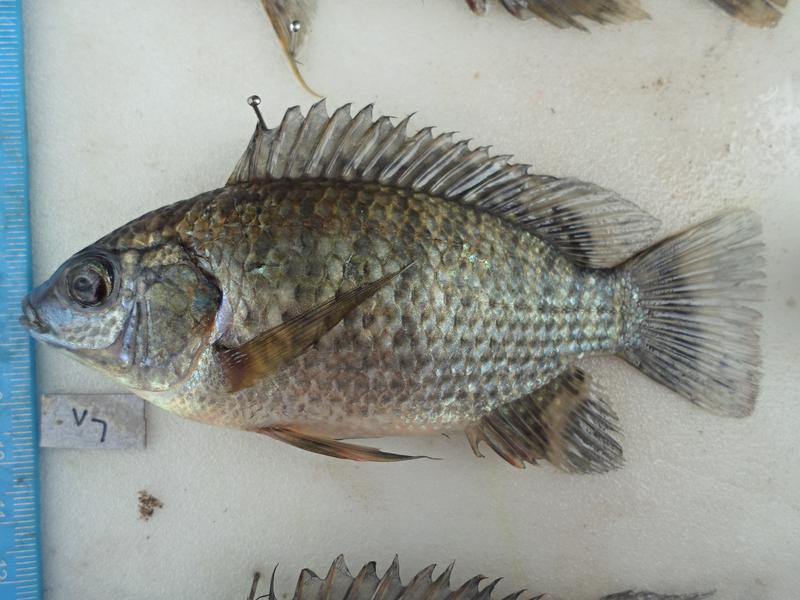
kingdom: Animalia
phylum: Chordata
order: Perciformes
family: Cichlidae
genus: Oreochromis
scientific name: Oreochromis leucostictus
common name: Blue spotted tilapia
